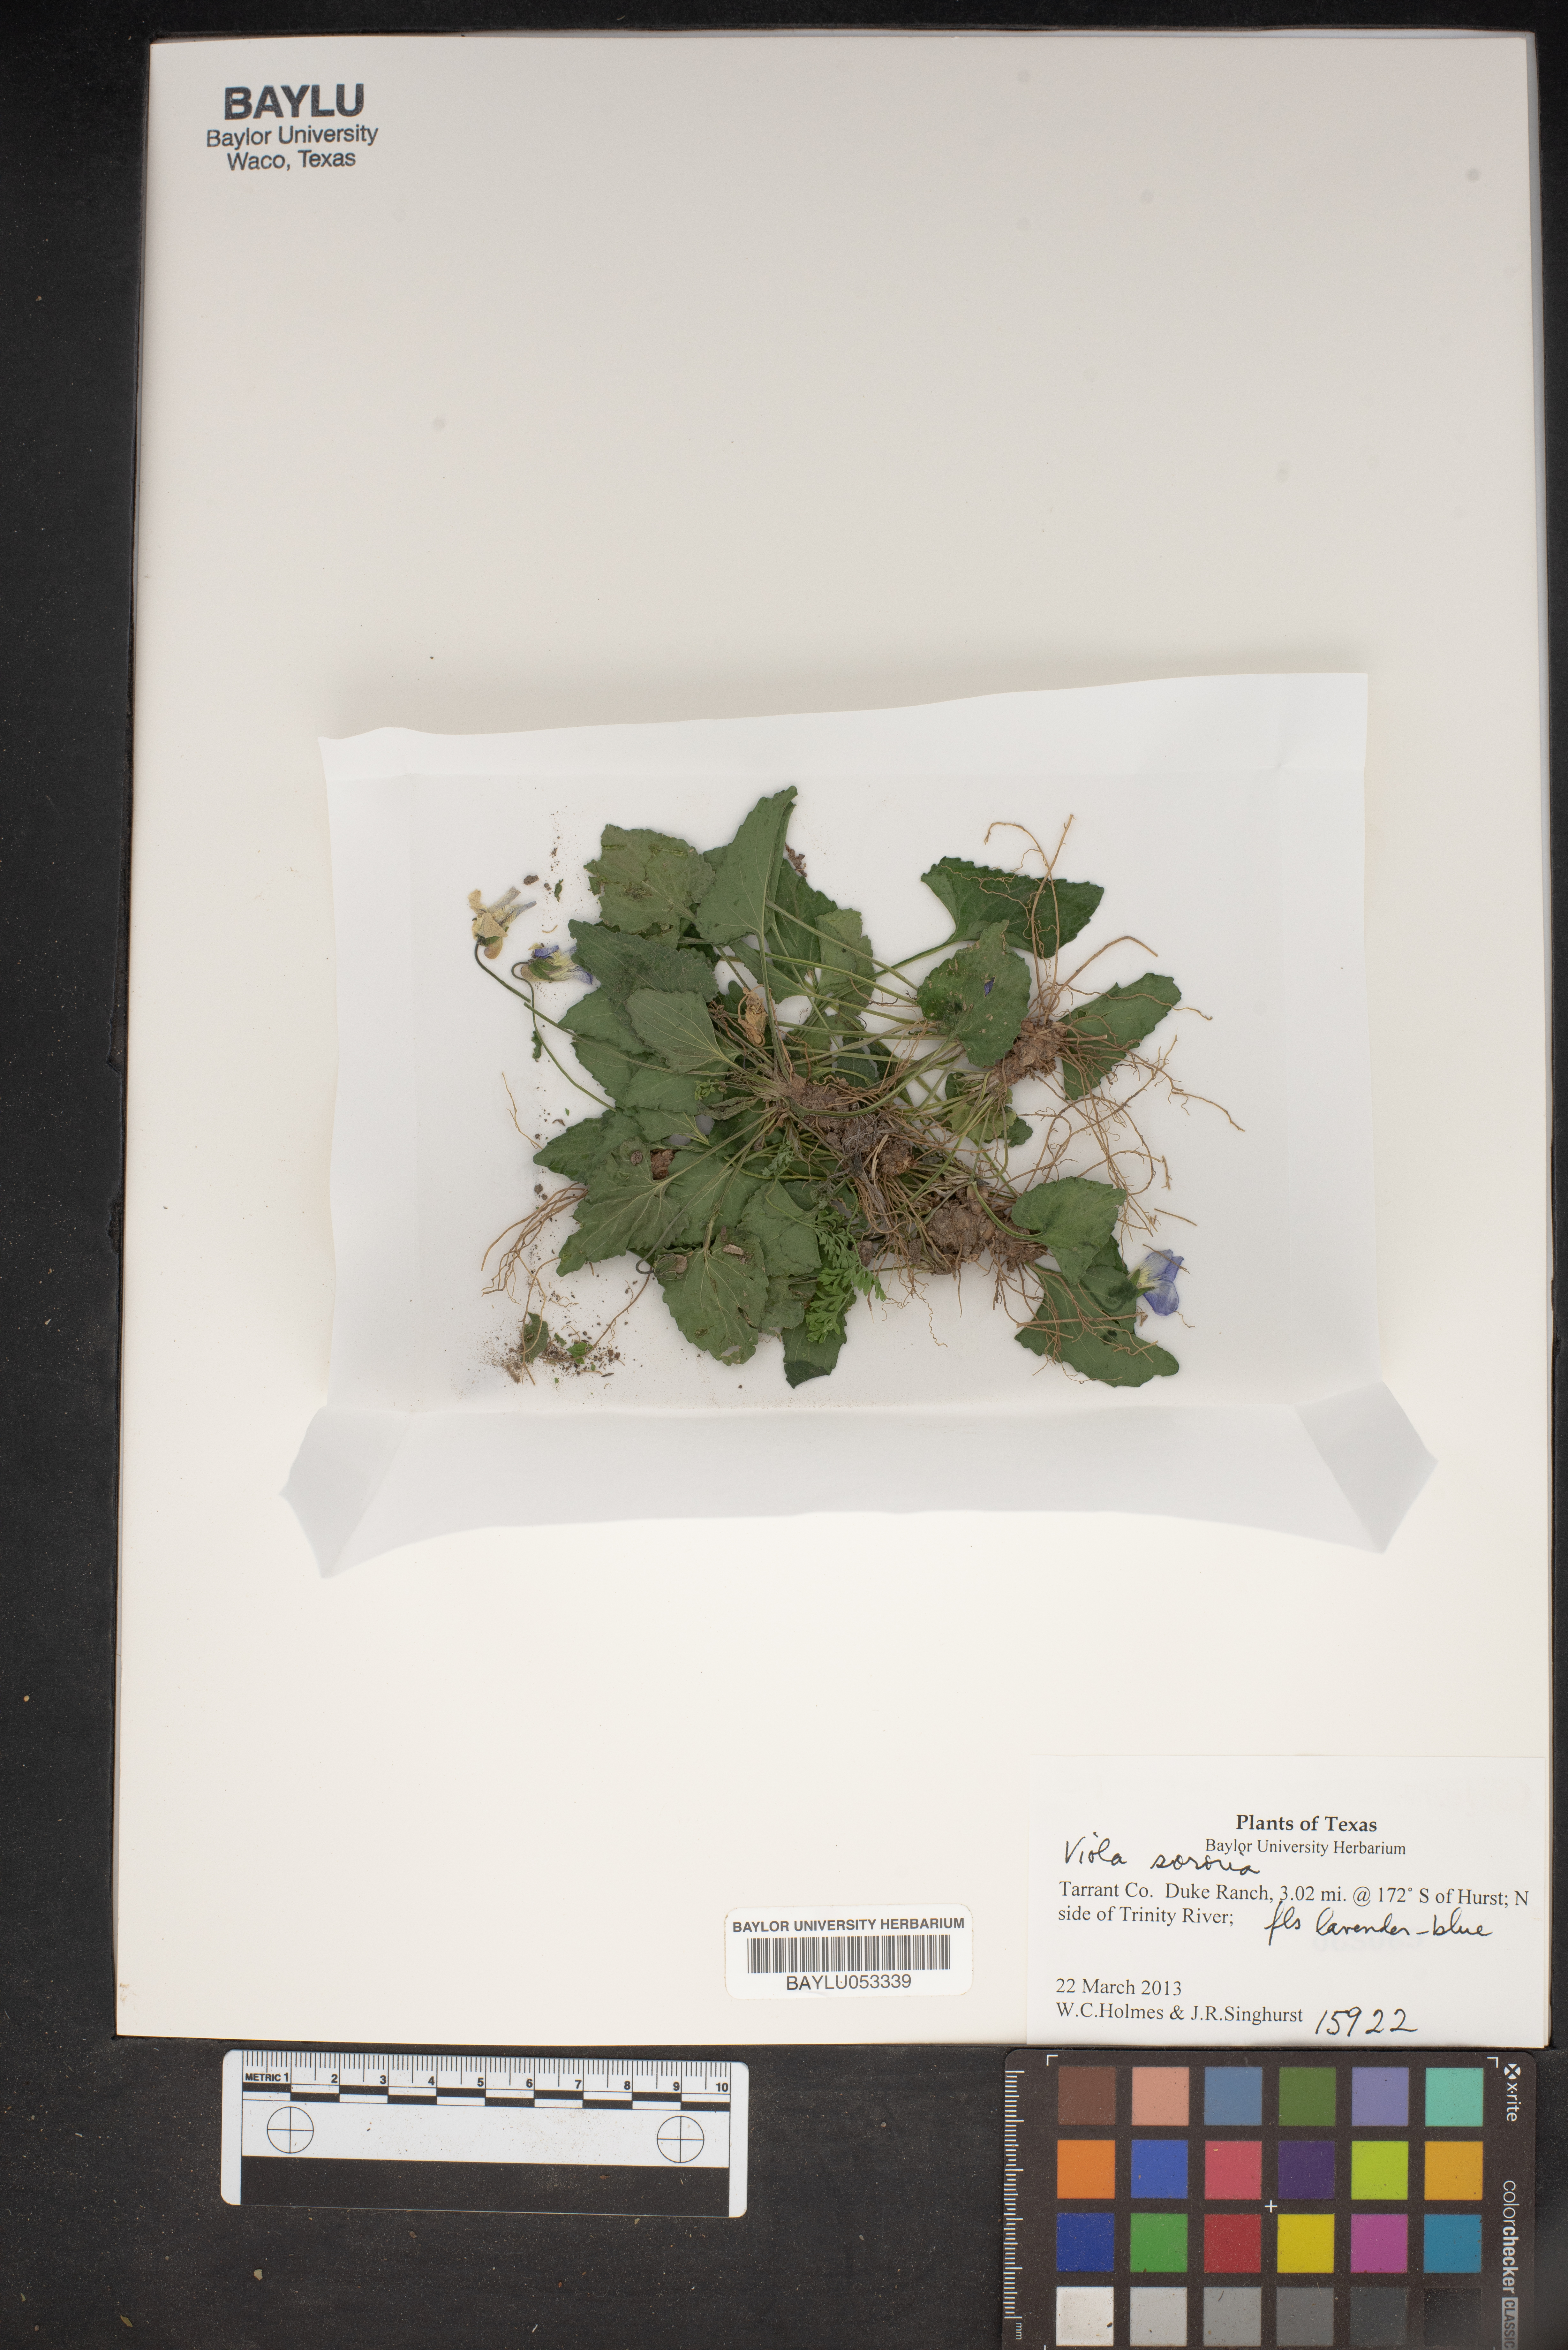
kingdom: Plantae
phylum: Tracheophyta
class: Magnoliopsida
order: Malpighiales
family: Violaceae
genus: Viola
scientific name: Viola sororia
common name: Dooryard violet
